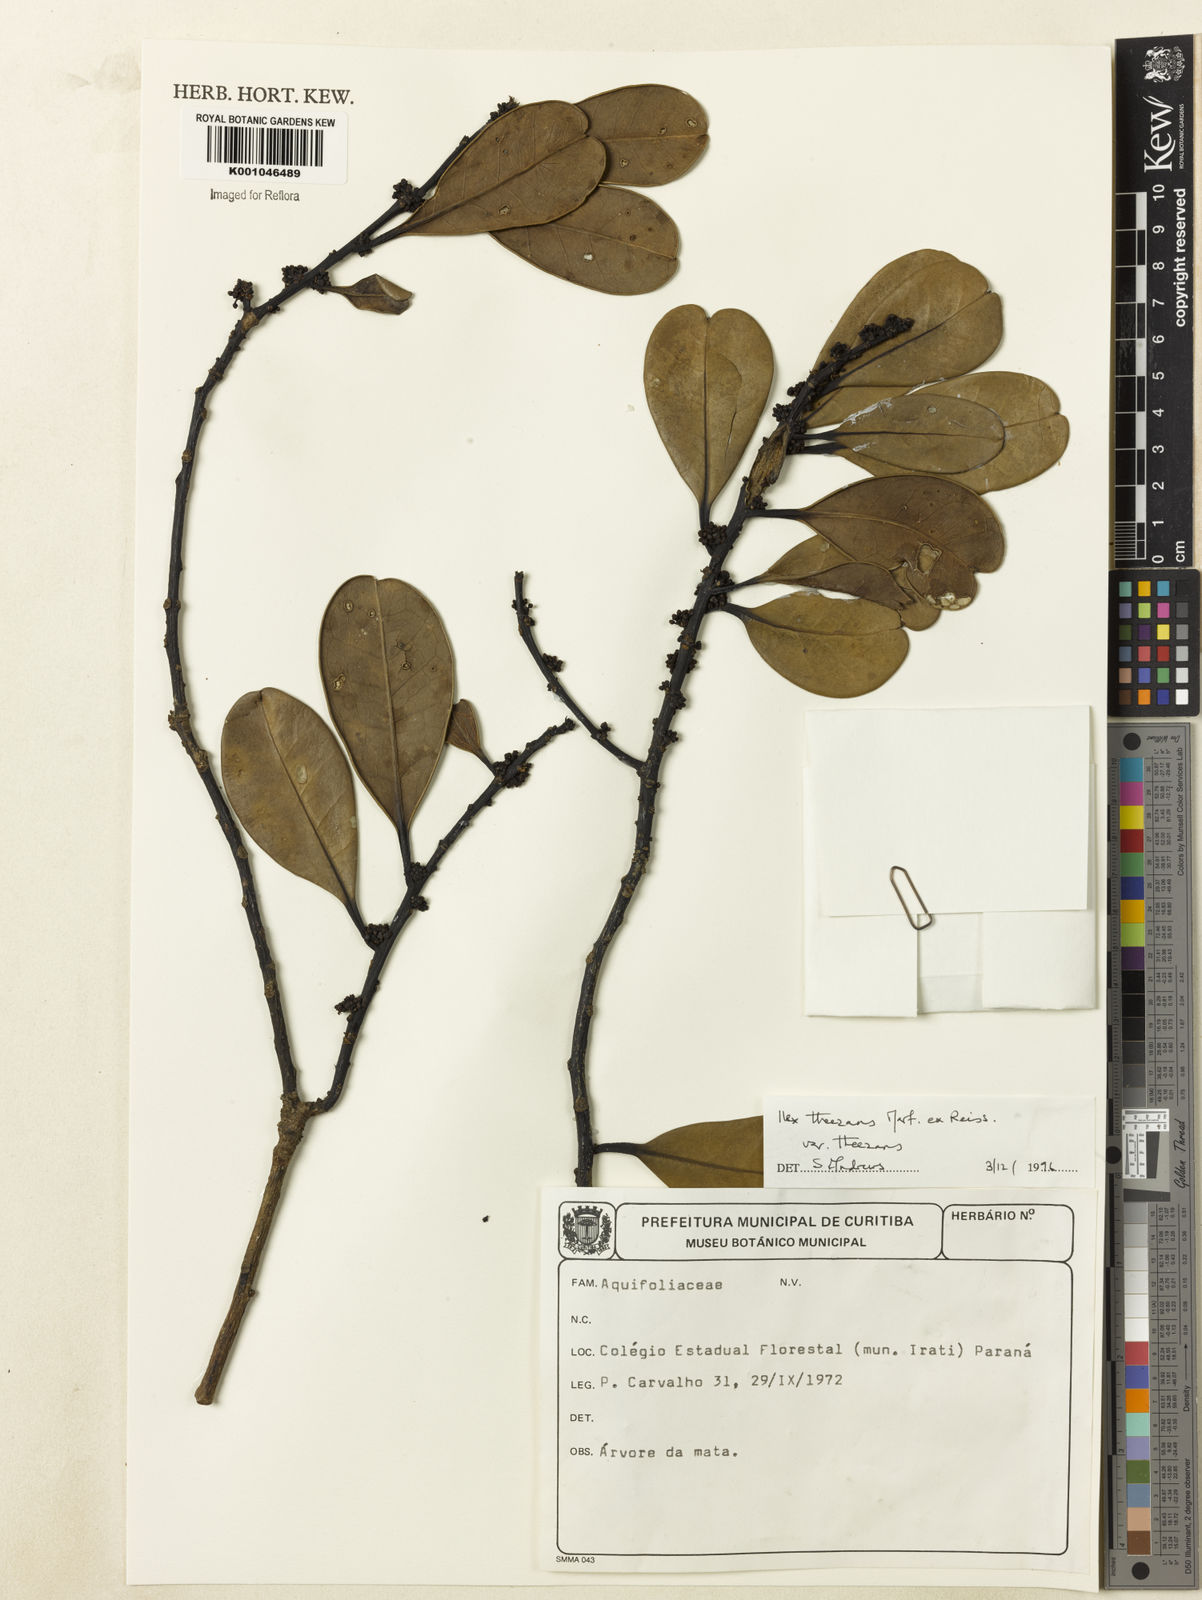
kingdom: Plantae
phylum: Tracheophyta
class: Magnoliopsida
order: Aquifoliales
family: Aquifoliaceae
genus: Ilex
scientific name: Ilex paraguariensis
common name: Paraguay tea
